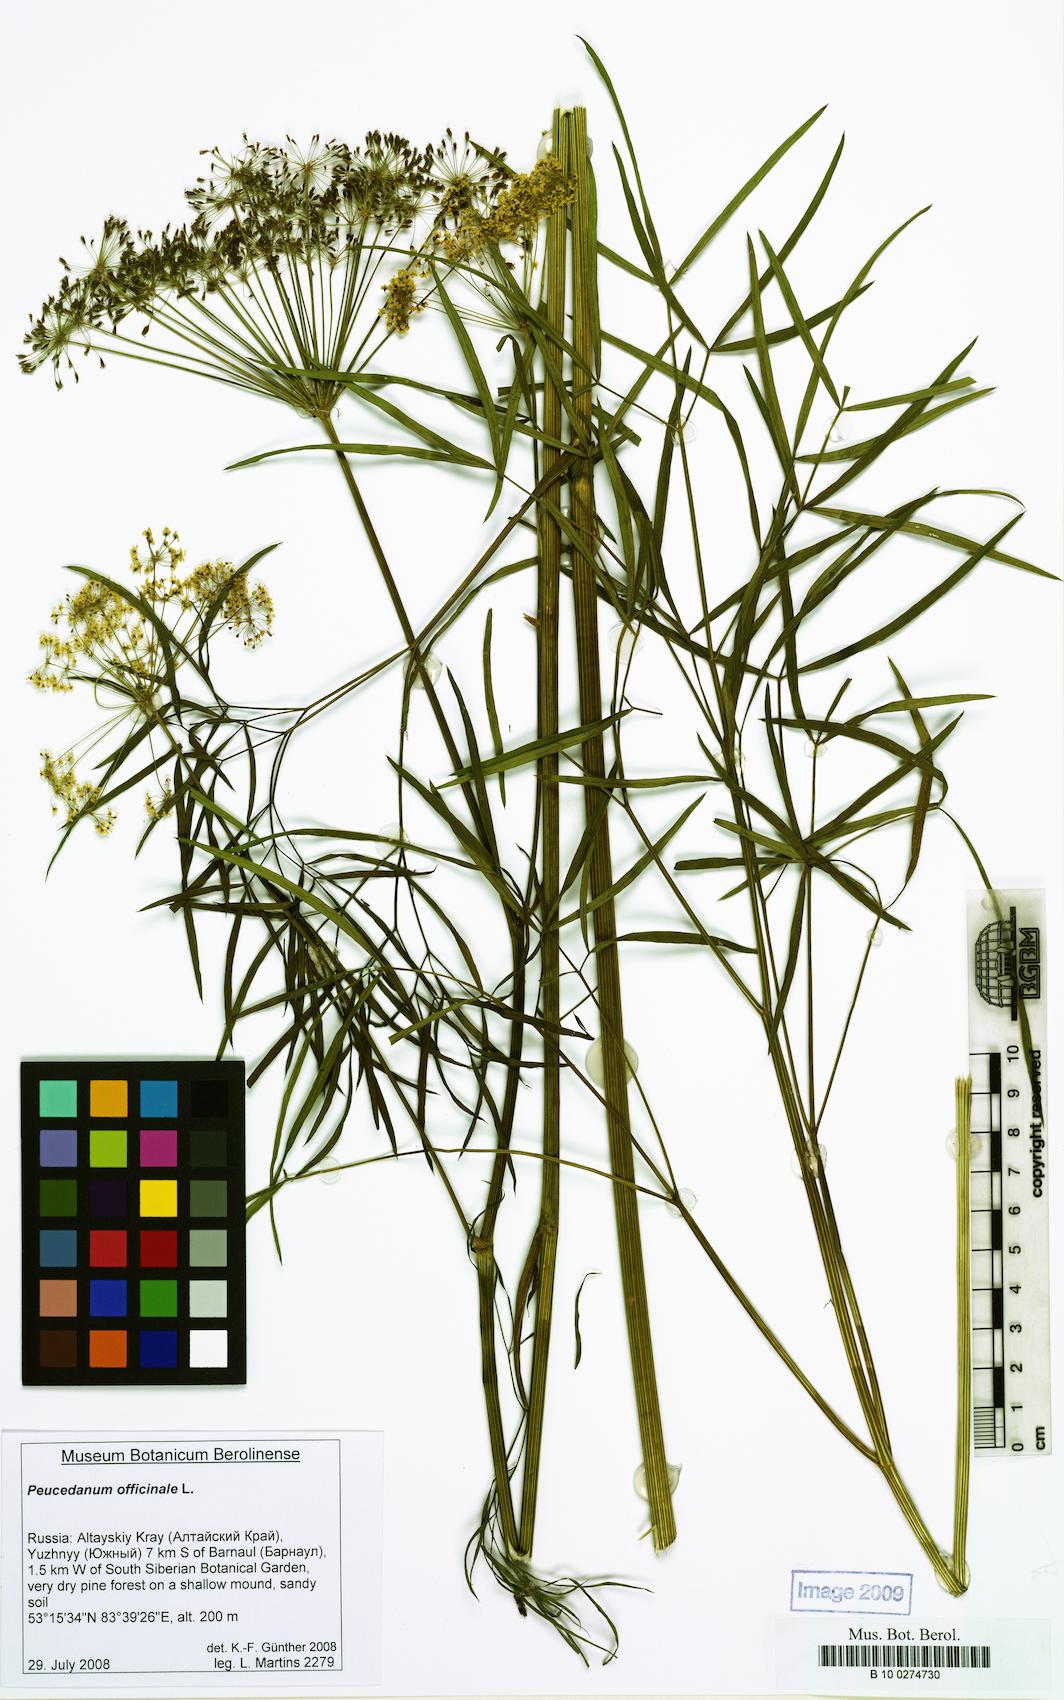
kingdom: Plantae
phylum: Tracheophyta
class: Magnoliopsida
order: Apiales
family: Apiaceae
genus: Peucedanum
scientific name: Peucedanum officinale
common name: Sulphurweed
